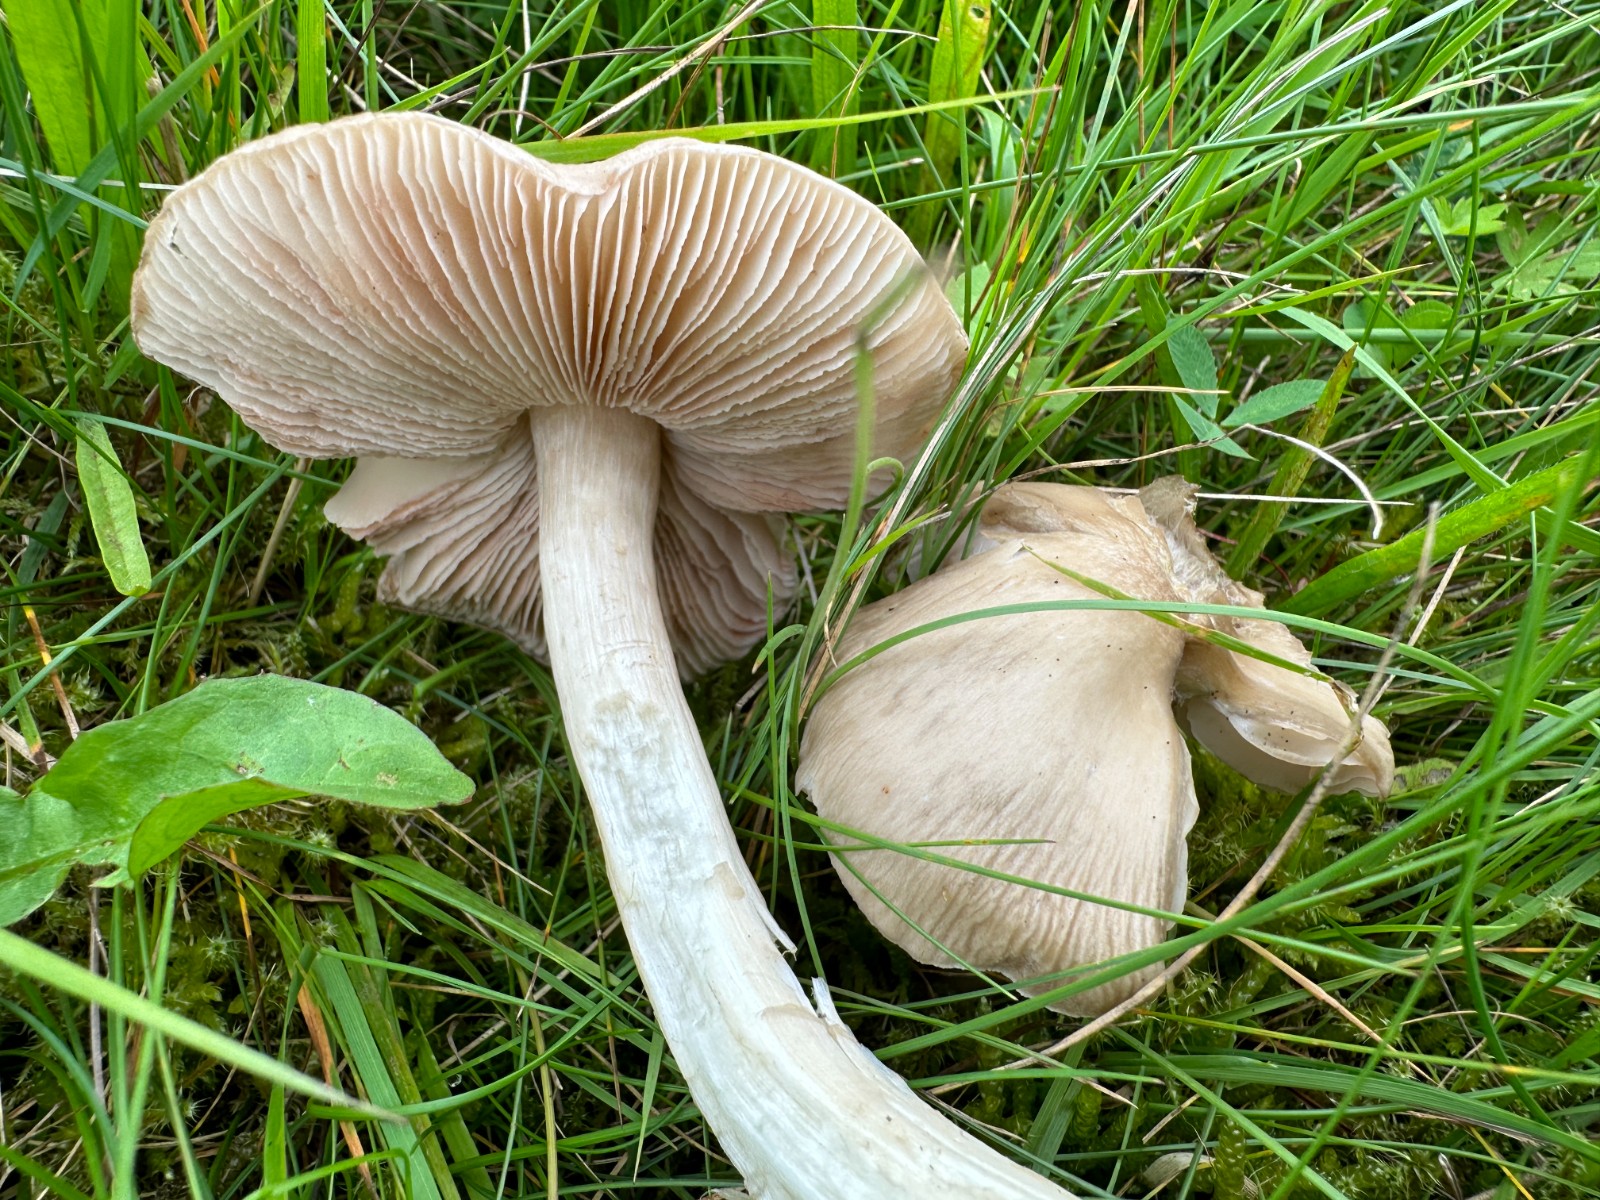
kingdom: Fungi
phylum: Basidiomycota
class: Agaricomycetes
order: Agaricales
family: Entolomataceae
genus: Entoloma
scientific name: Entoloma prunuloides
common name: mel-rødblad
